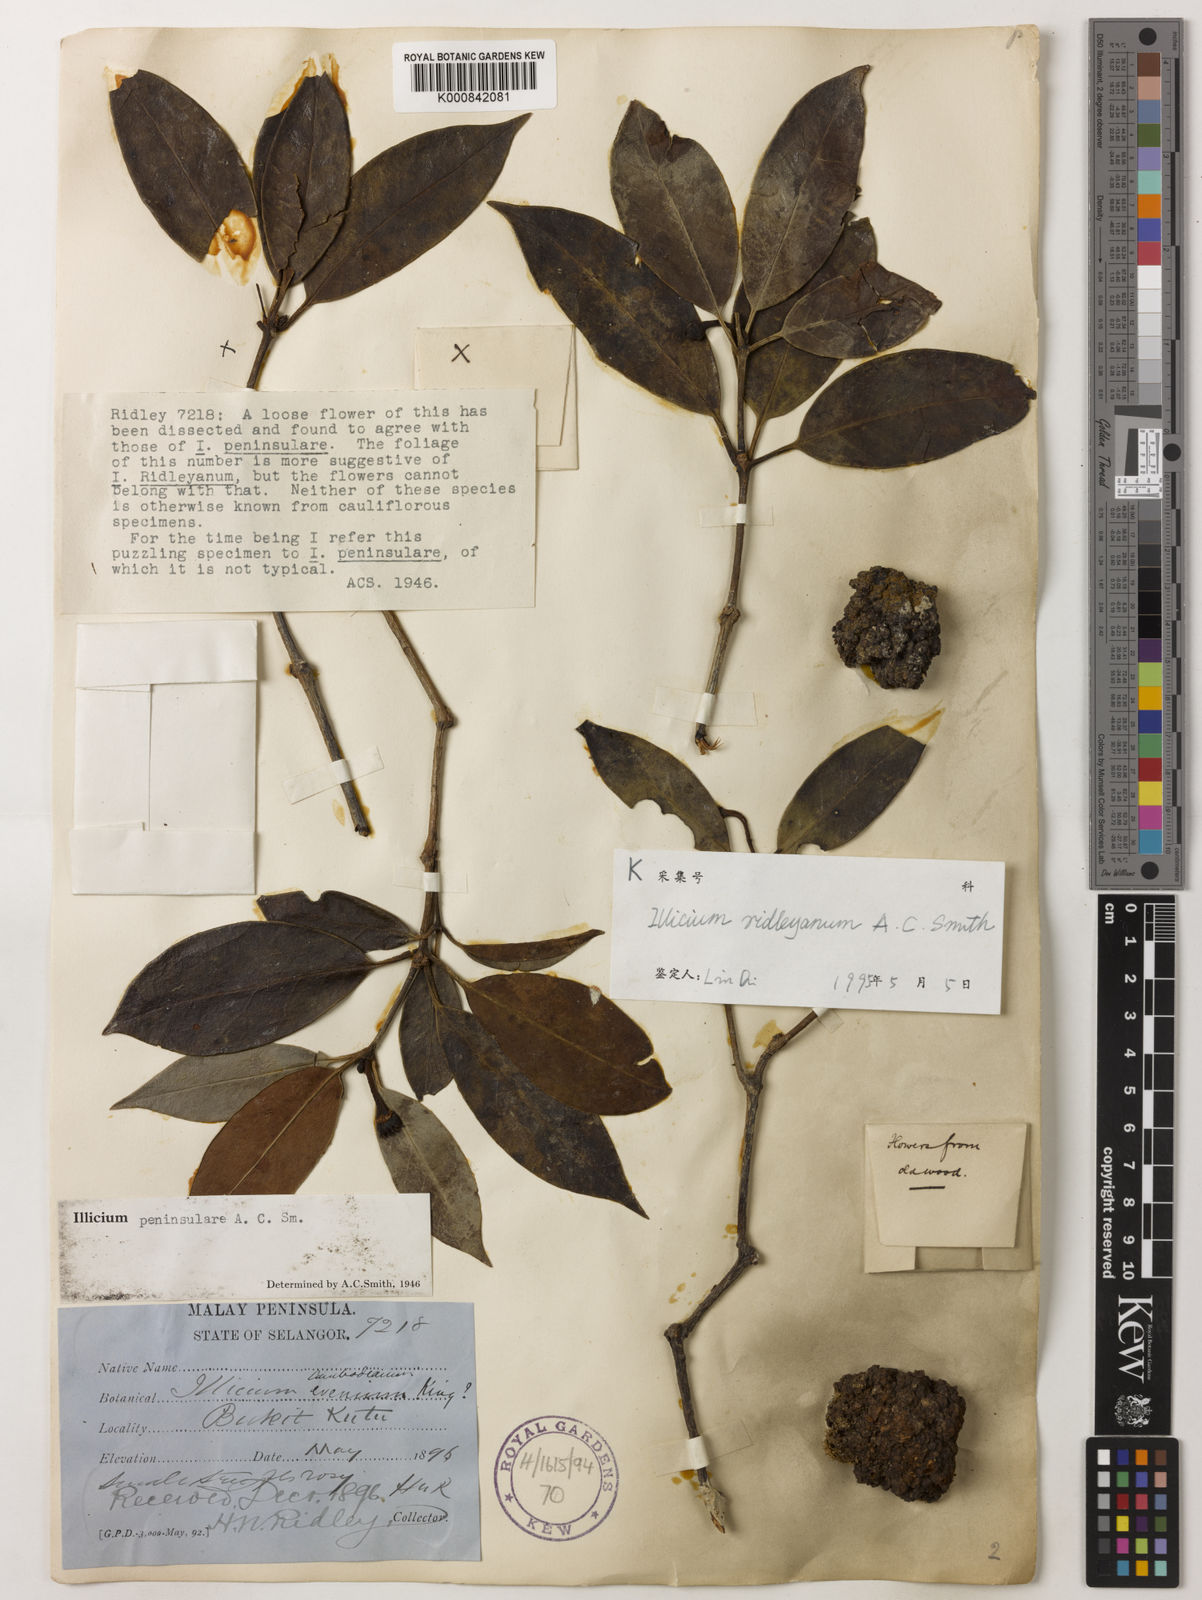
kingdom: Plantae
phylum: Tracheophyta
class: Magnoliopsida
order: Austrobaileyales
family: Schisandraceae
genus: Illicium
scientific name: Illicium ridleyanum
